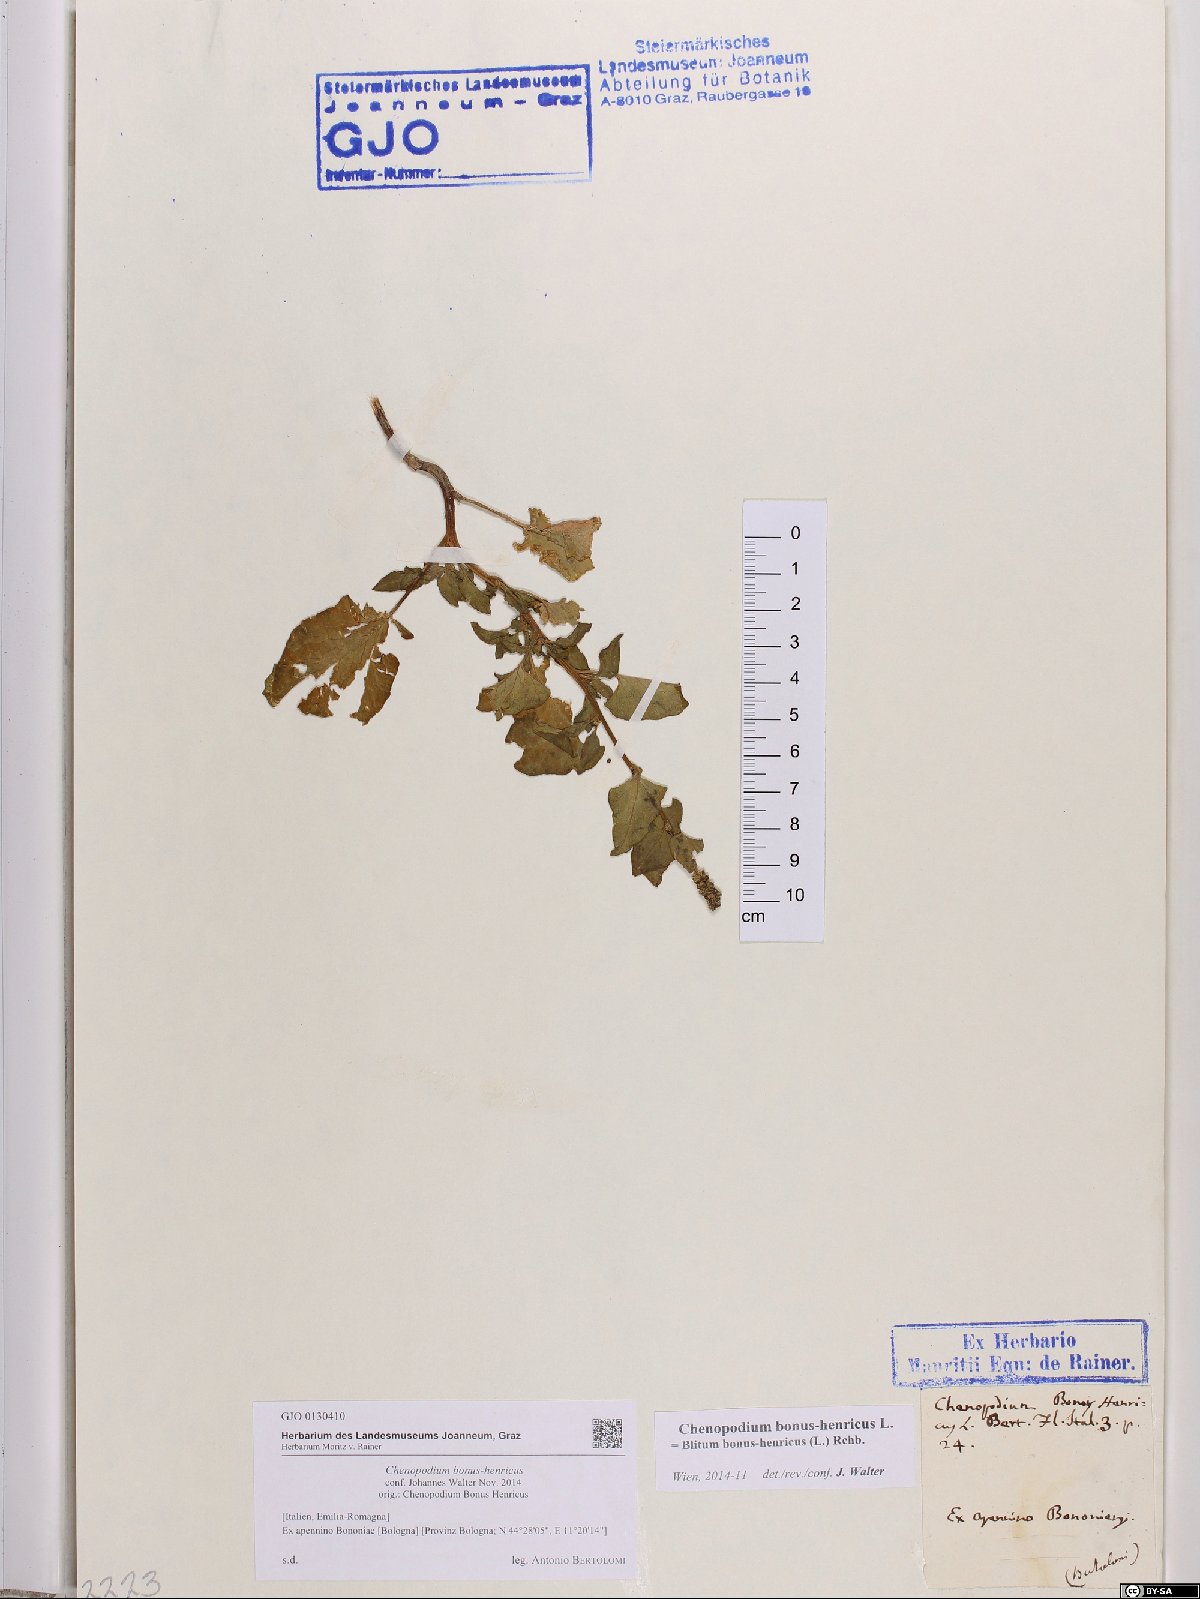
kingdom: Plantae
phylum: Tracheophyta
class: Magnoliopsida
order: Caryophyllales
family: Amaranthaceae
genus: Blitum
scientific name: Blitum bonus-henricus
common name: Good king henry
